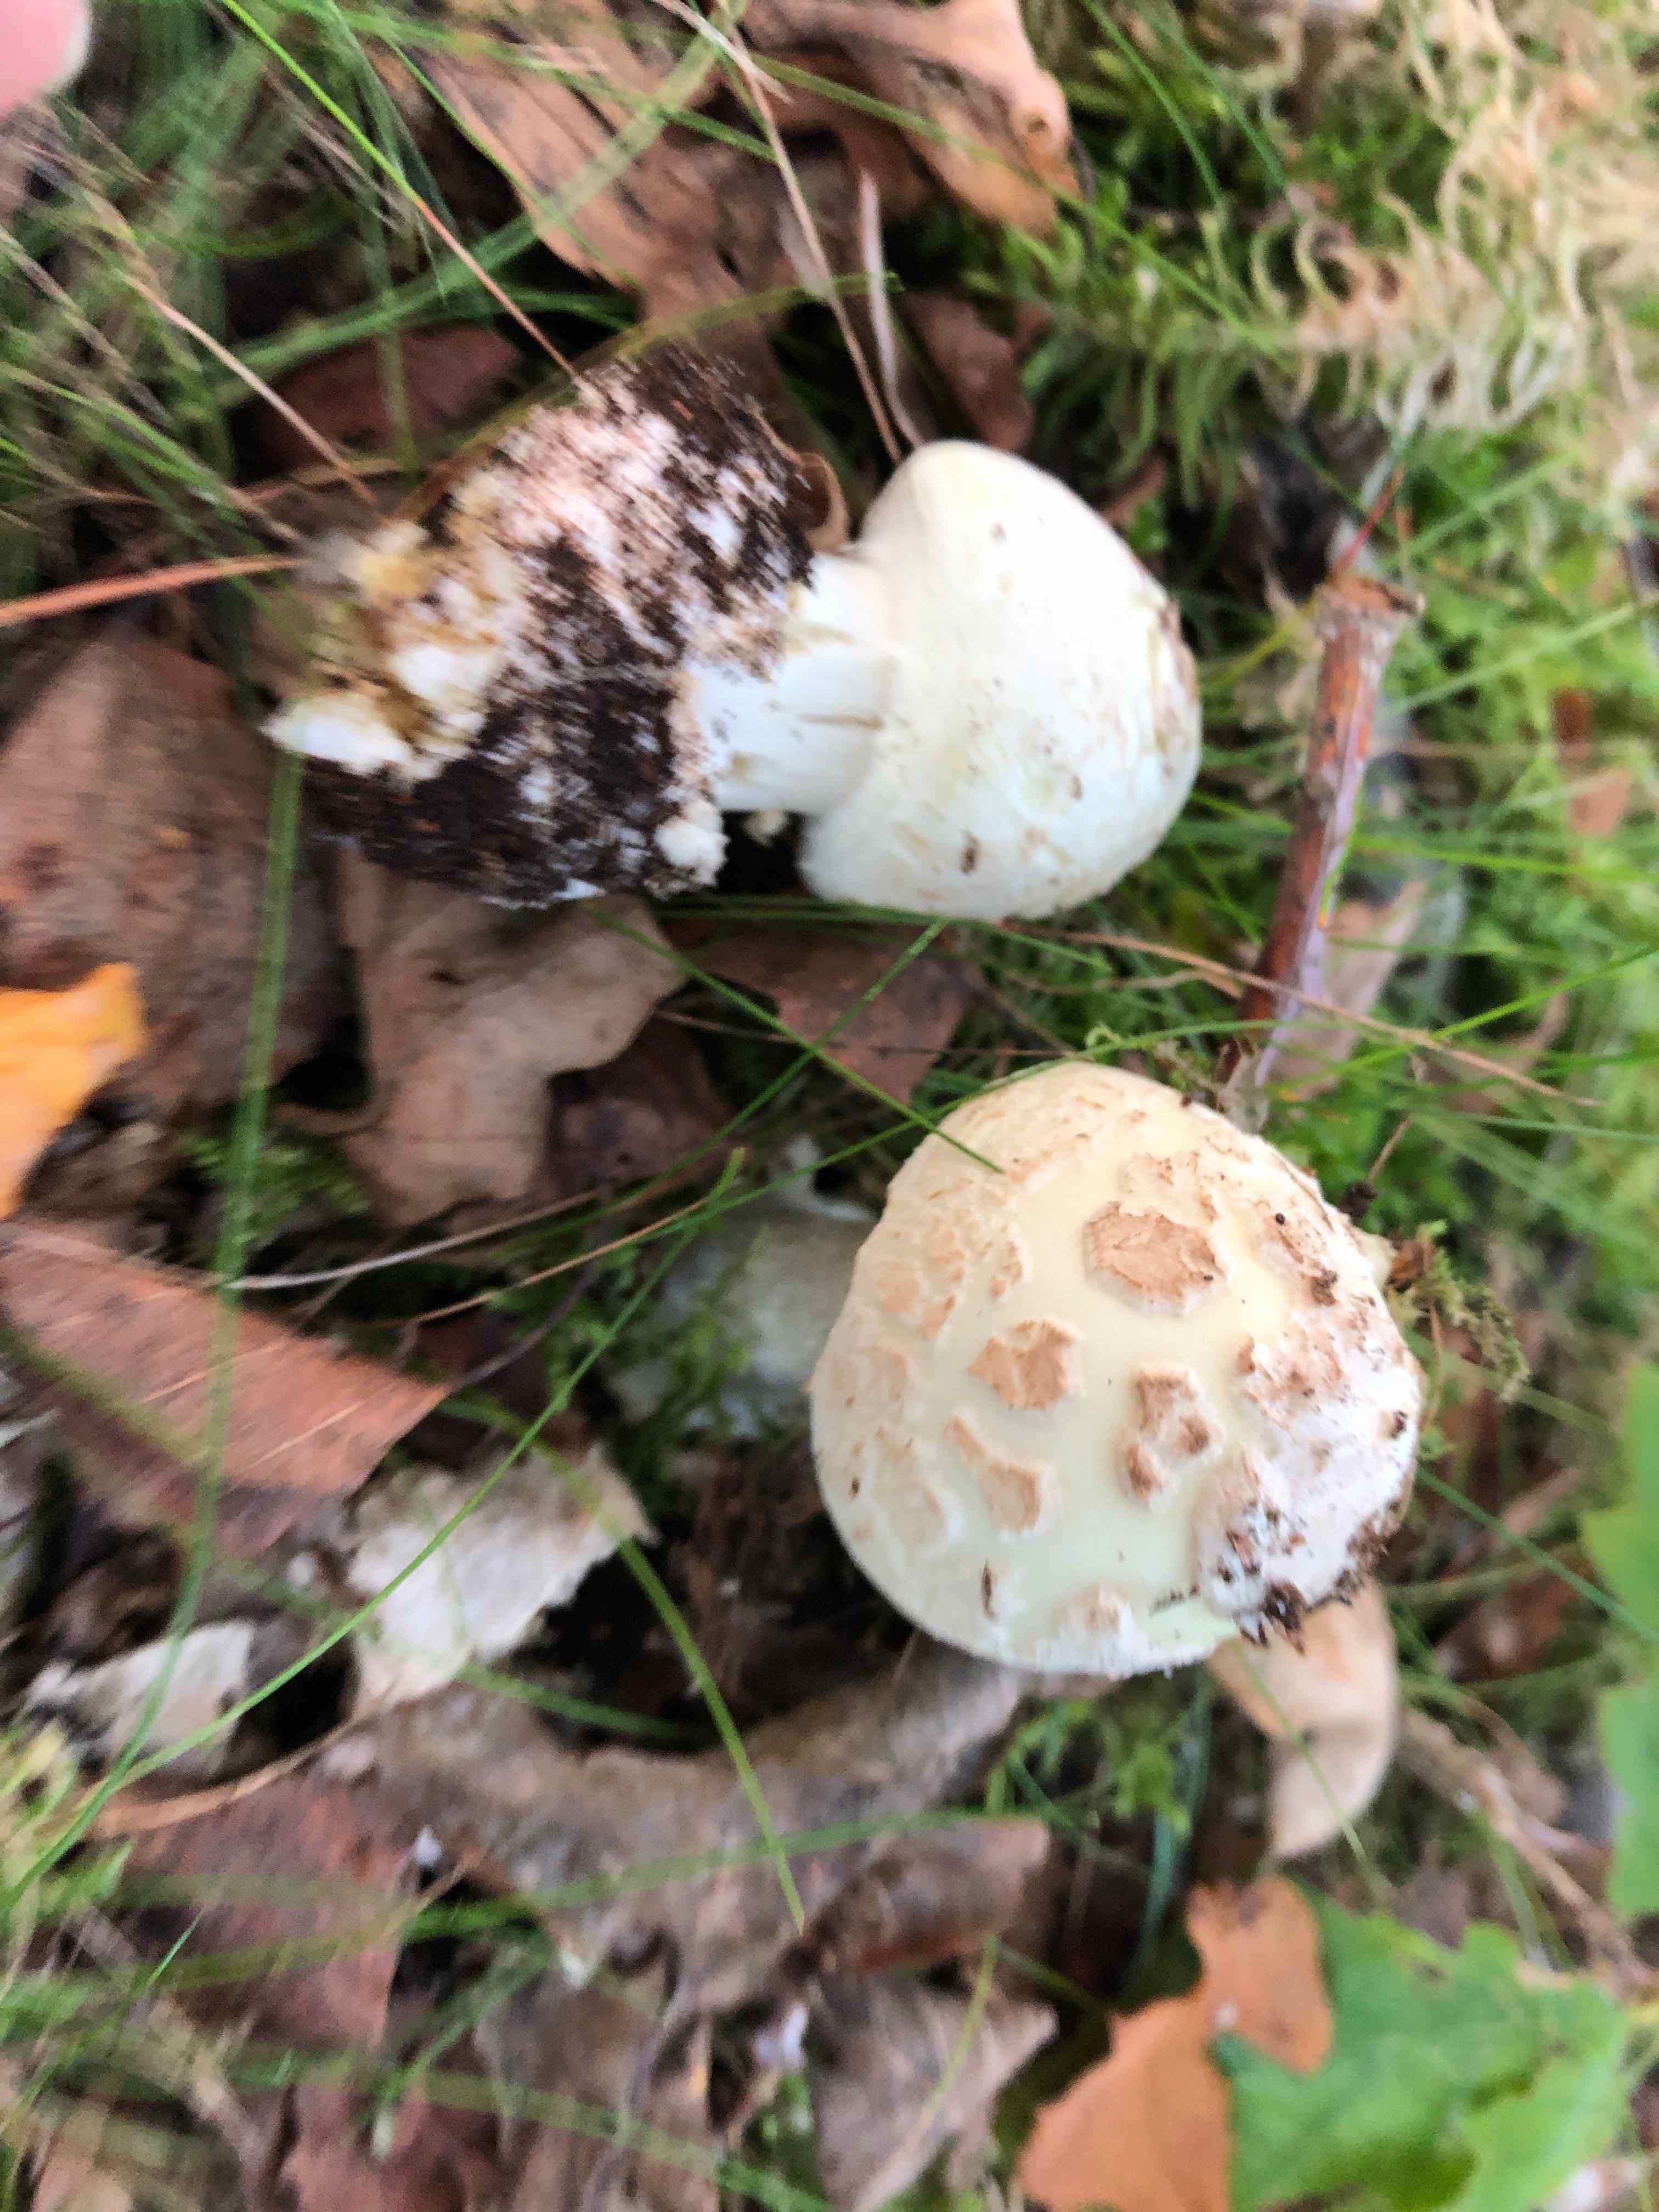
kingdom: Fungi
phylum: Basidiomycota
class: Agaricomycetes
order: Agaricales
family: Amanitaceae
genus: Amanita
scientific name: Amanita citrina
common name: kugleknoldet fluesvamp
